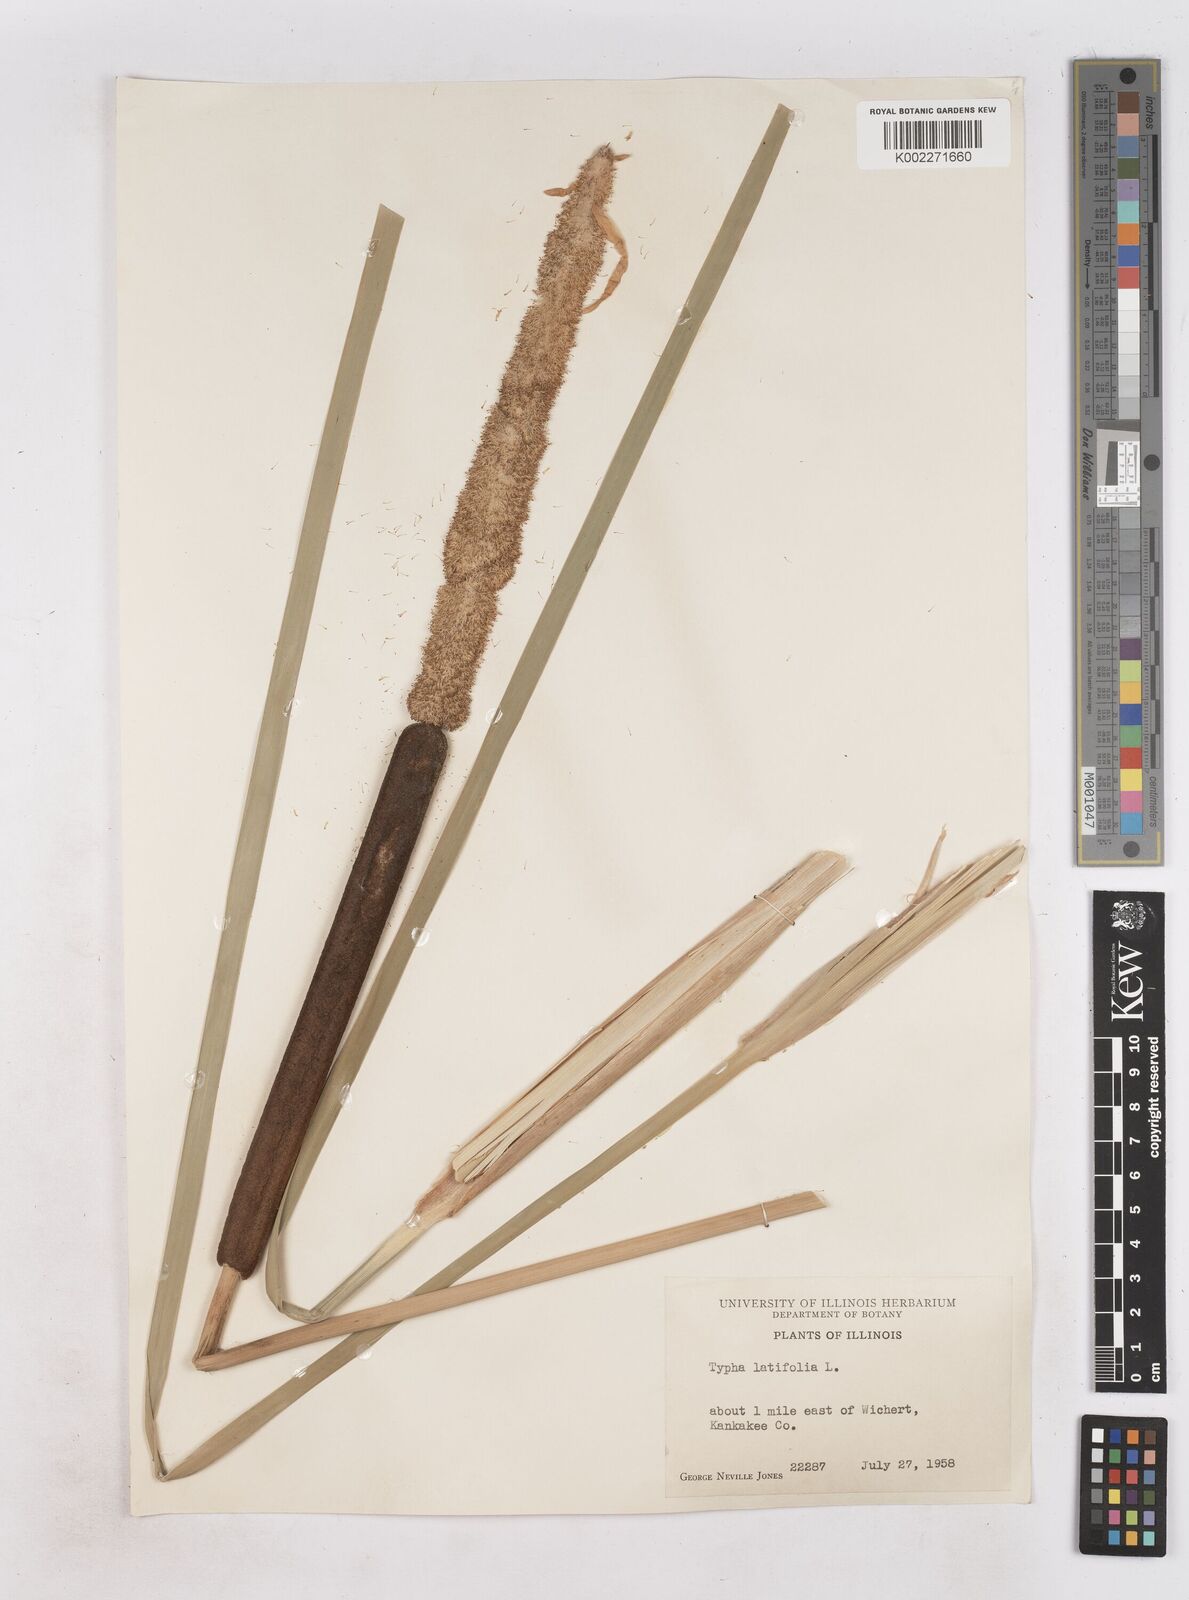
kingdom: Plantae
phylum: Tracheophyta
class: Liliopsida
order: Poales
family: Typhaceae
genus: Typha
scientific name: Typha
